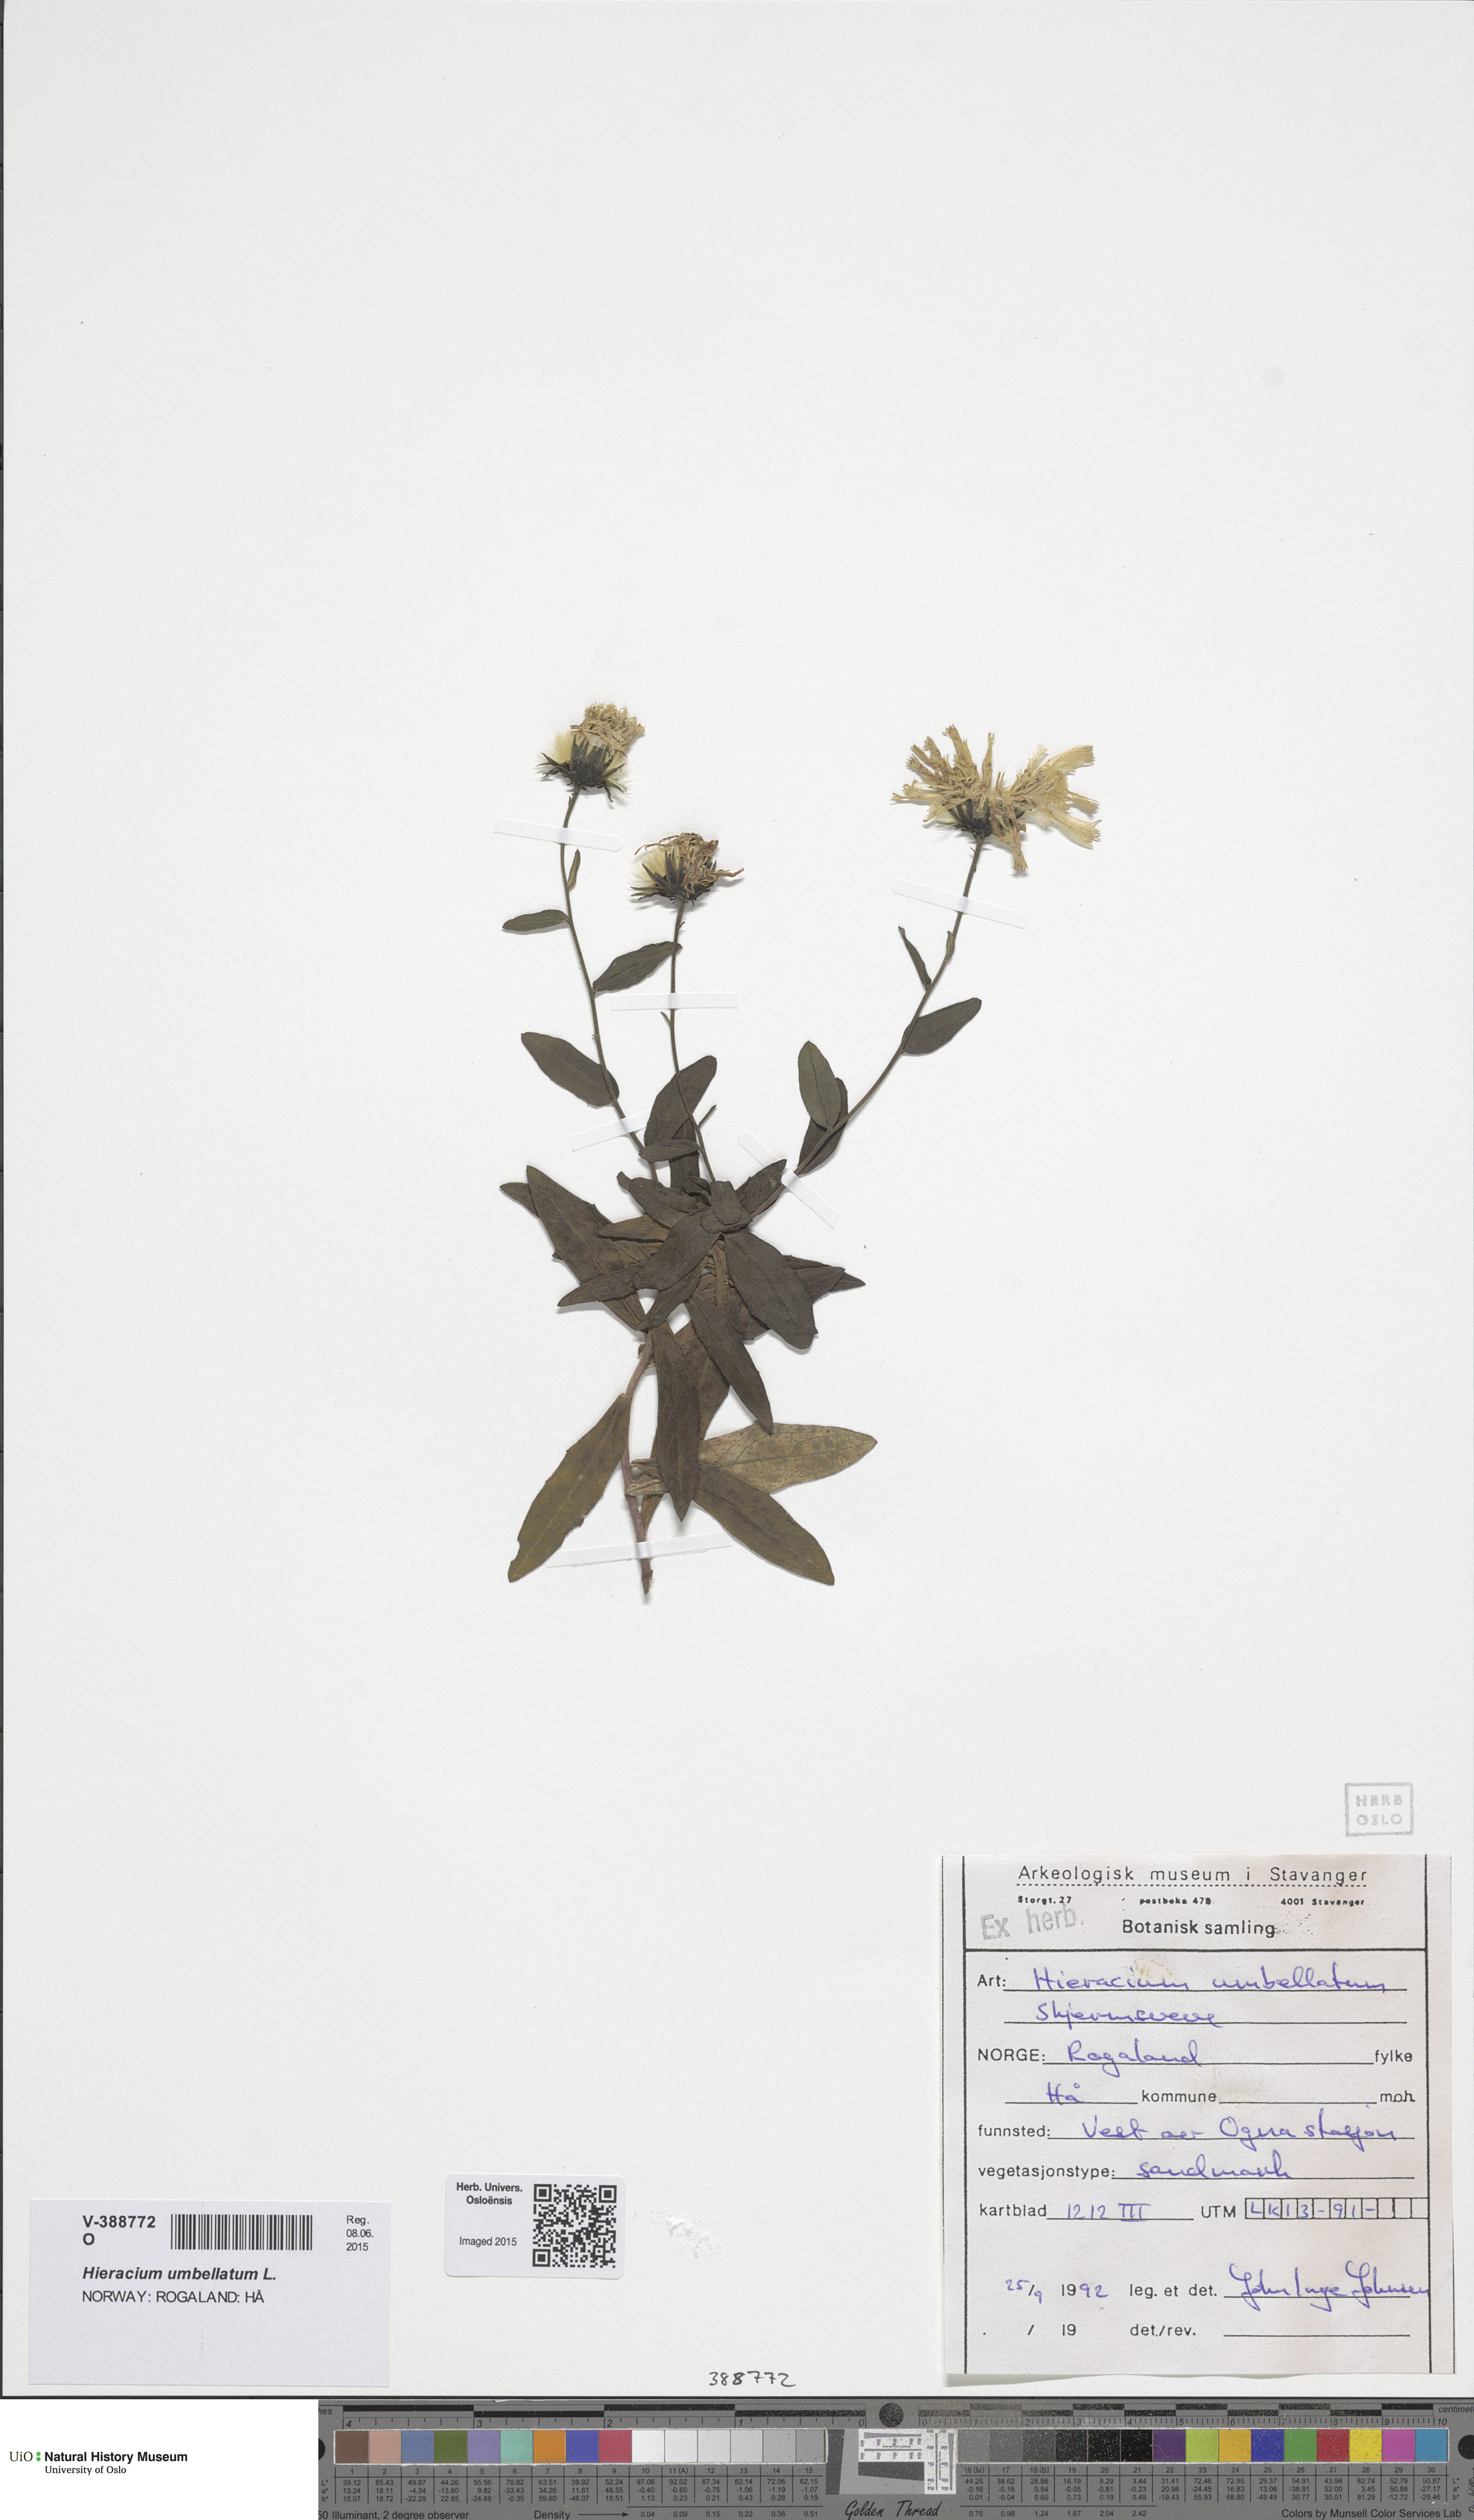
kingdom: Plantae
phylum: Tracheophyta
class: Magnoliopsida
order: Asterales
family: Asteraceae
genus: Hieracium
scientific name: Hieracium umbellatum
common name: Northern hawkweed
